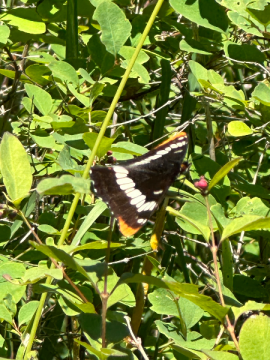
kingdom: Animalia
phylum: Arthropoda
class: Insecta
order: Lepidoptera
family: Nymphalidae
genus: Limenitis
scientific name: Limenitis lorquini
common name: Lorquin's Admiral
